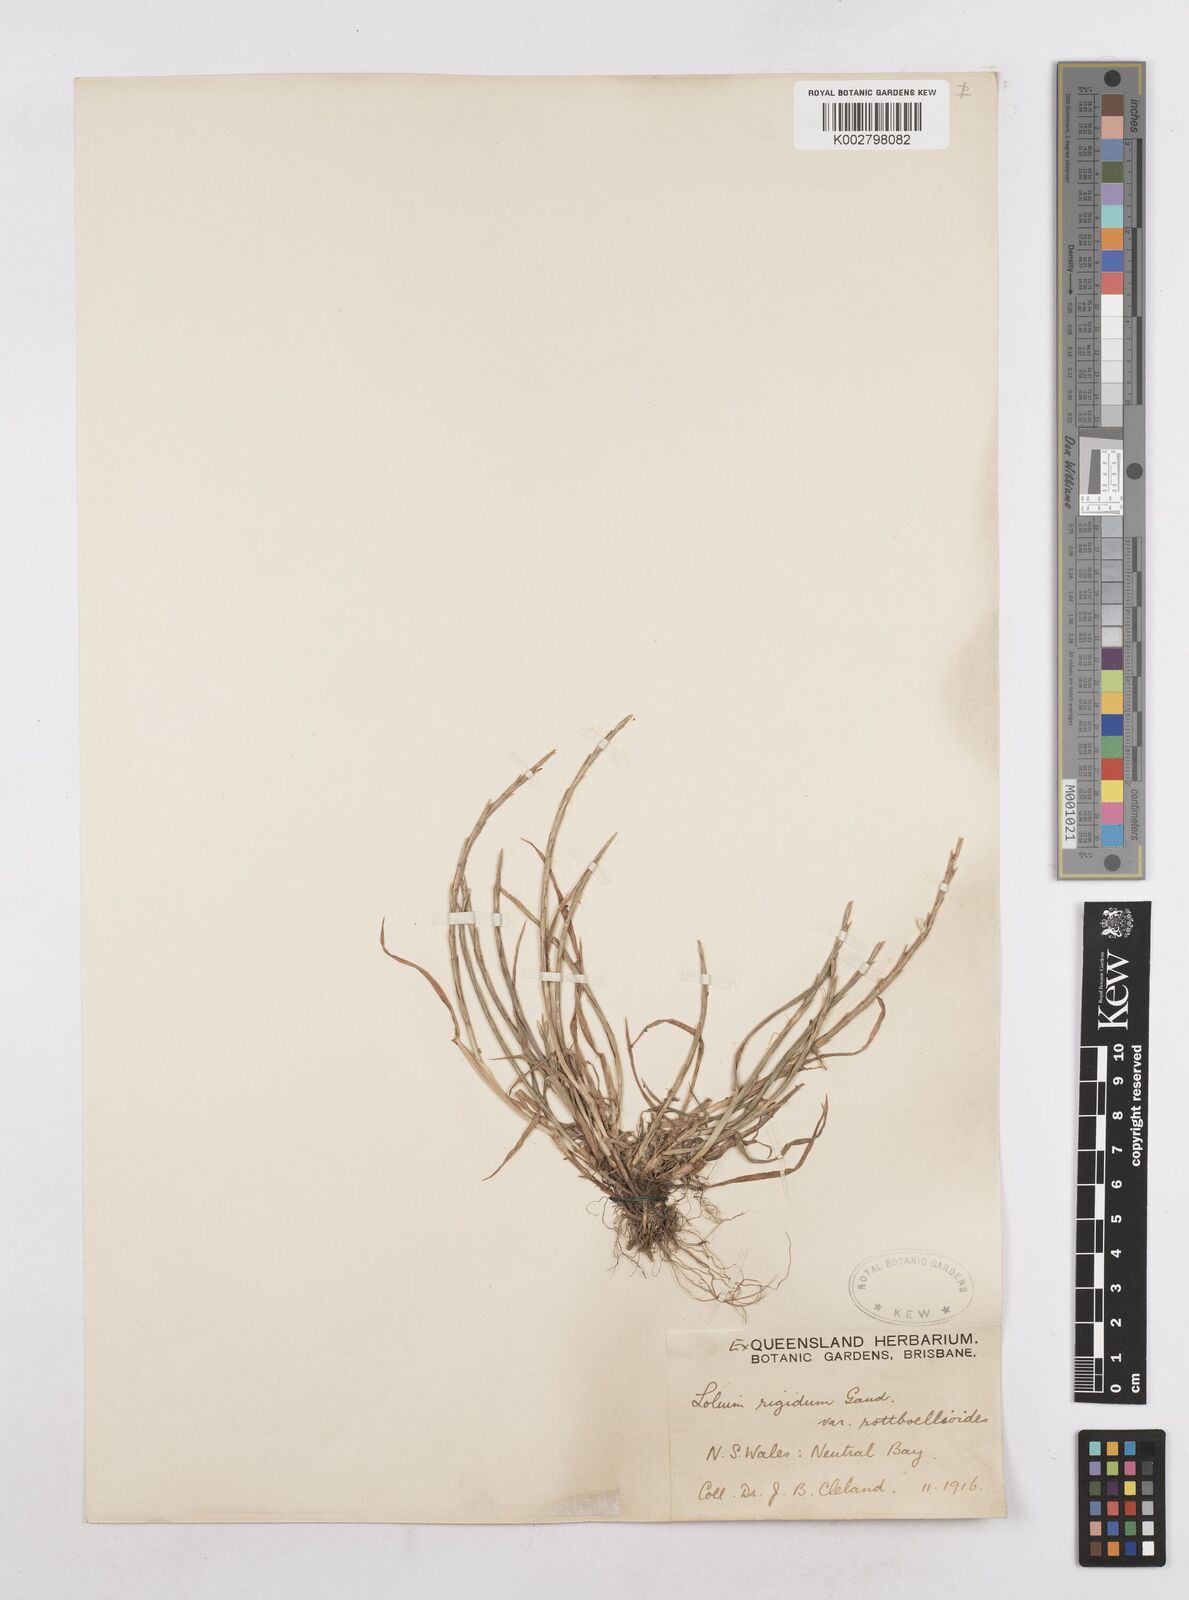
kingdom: Plantae
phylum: Tracheophyta
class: Liliopsida
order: Poales
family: Poaceae
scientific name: Poaceae
